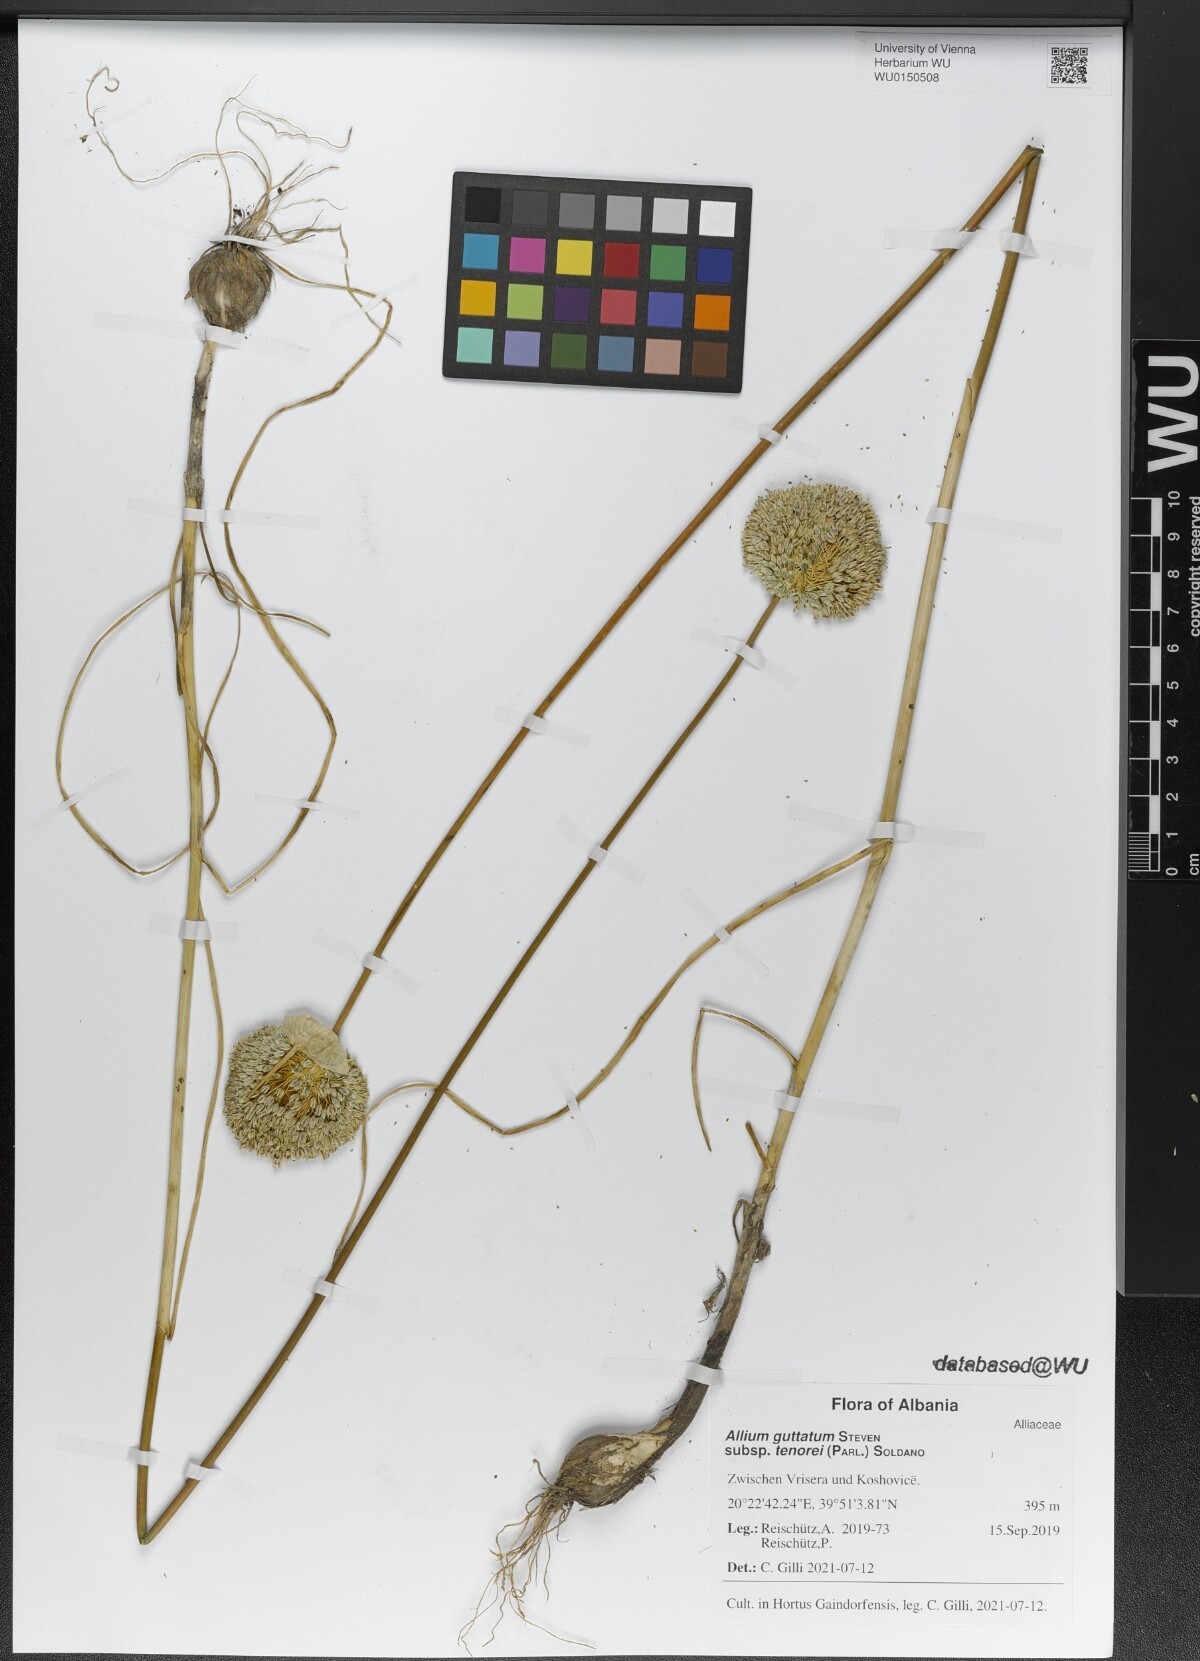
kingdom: Plantae
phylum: Tracheophyta
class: Liliopsida
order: Asparagales
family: Amaryllidaceae
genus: Allium
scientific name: Allium sardoum
